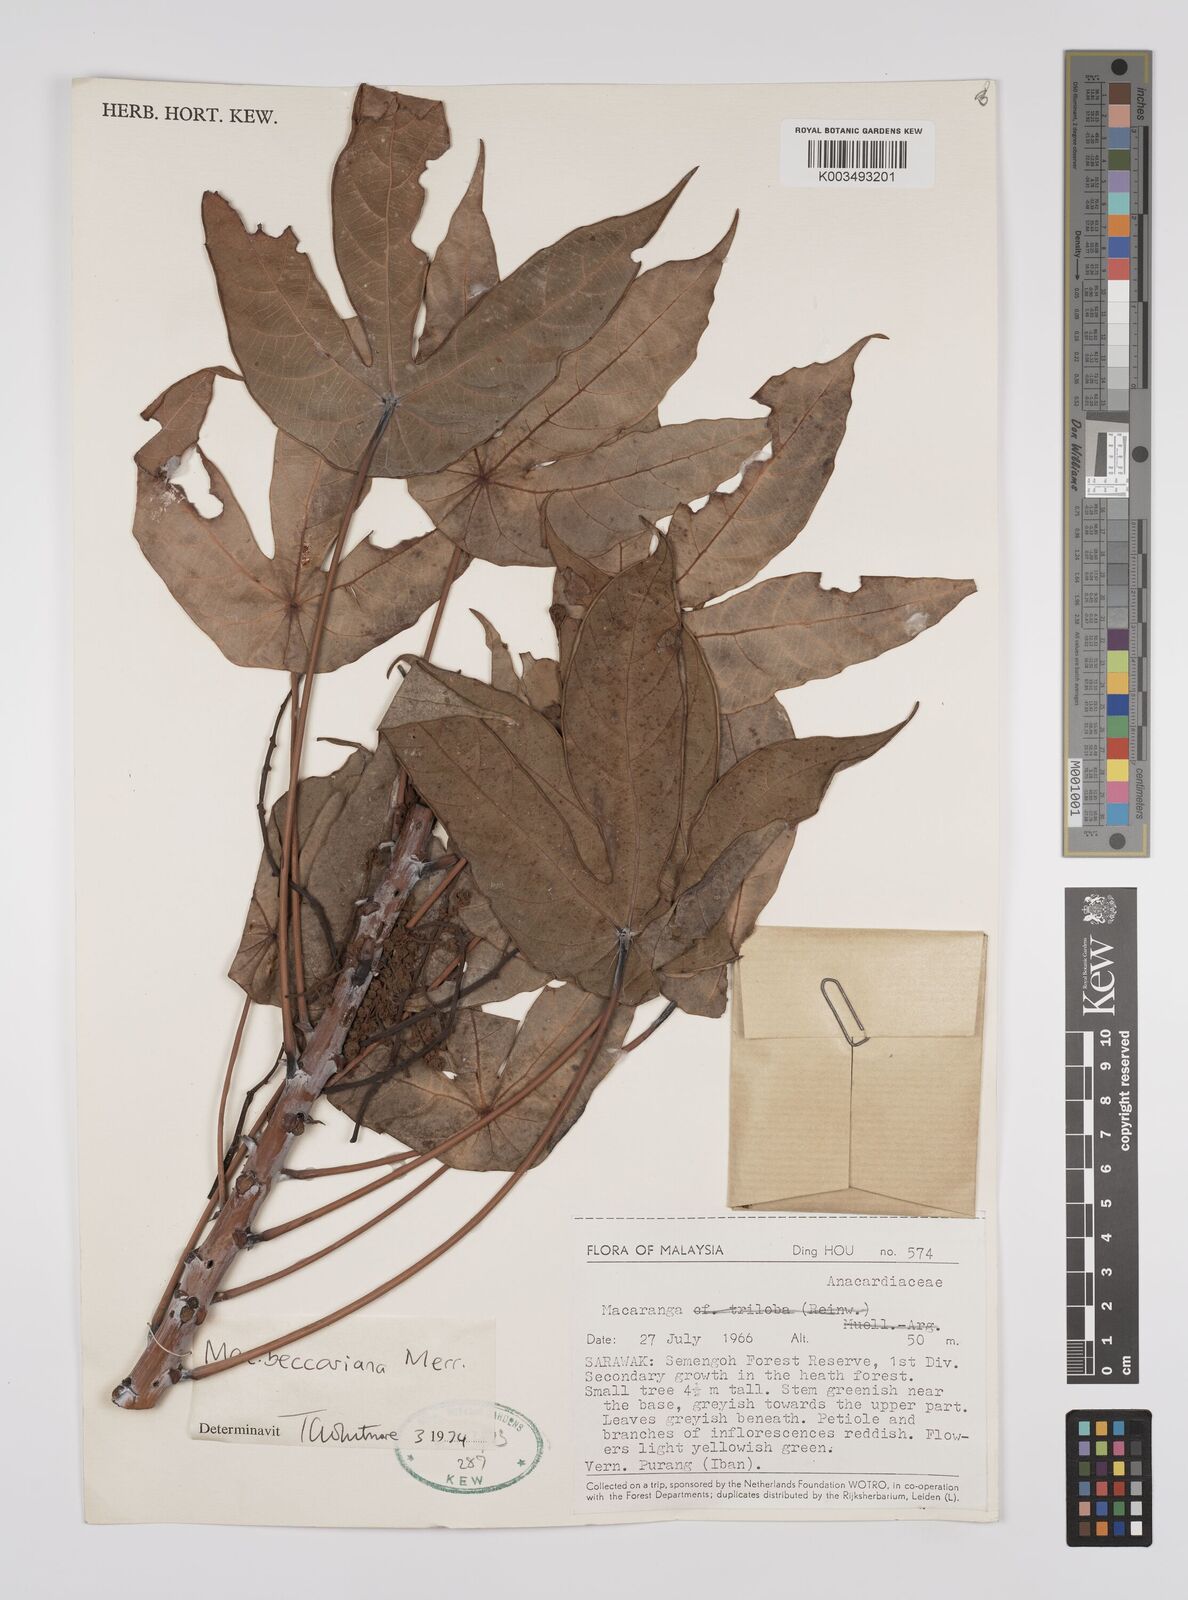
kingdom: Plantae
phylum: Tracheophyta
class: Magnoliopsida
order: Malpighiales
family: Euphorbiaceae
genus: Macaranga
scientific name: Macaranga beccariana
